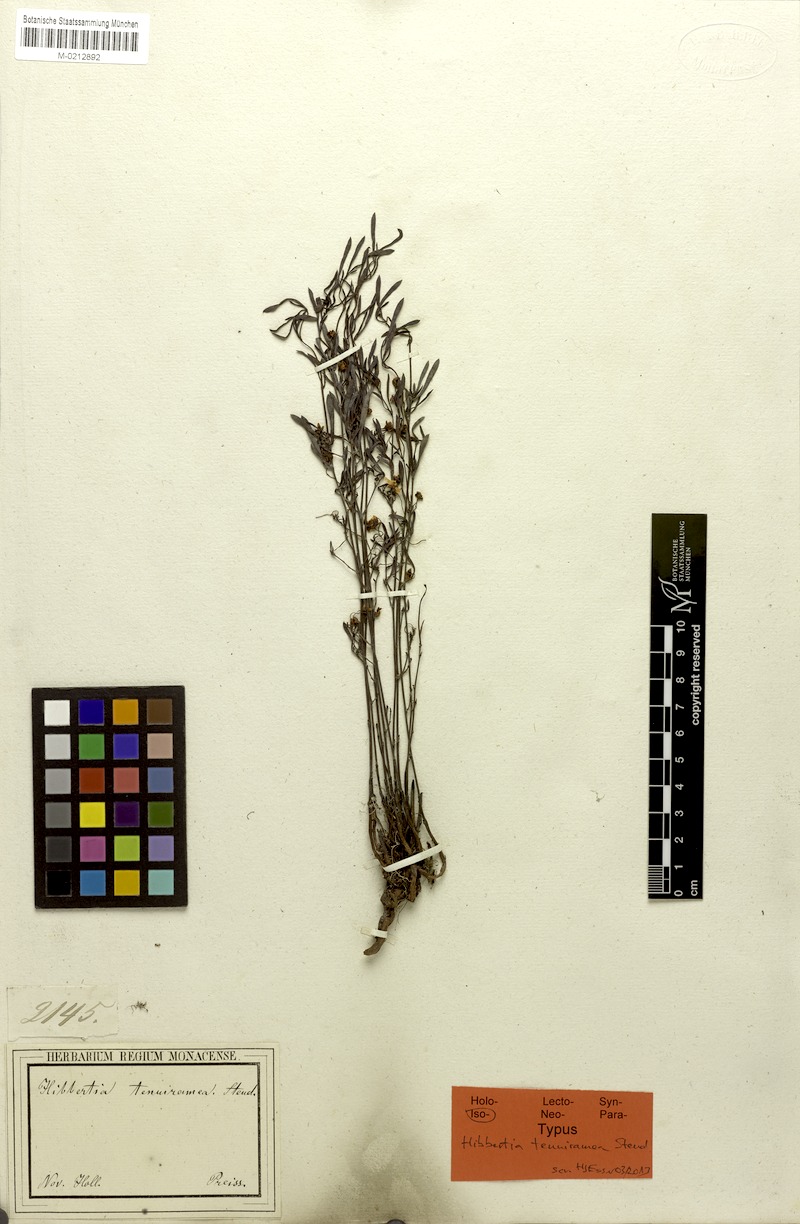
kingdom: Plantae
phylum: Tracheophyta
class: Magnoliopsida
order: Dilleniales
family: Dilleniaceae
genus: Hibbertia
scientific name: Hibbertia stellaris
